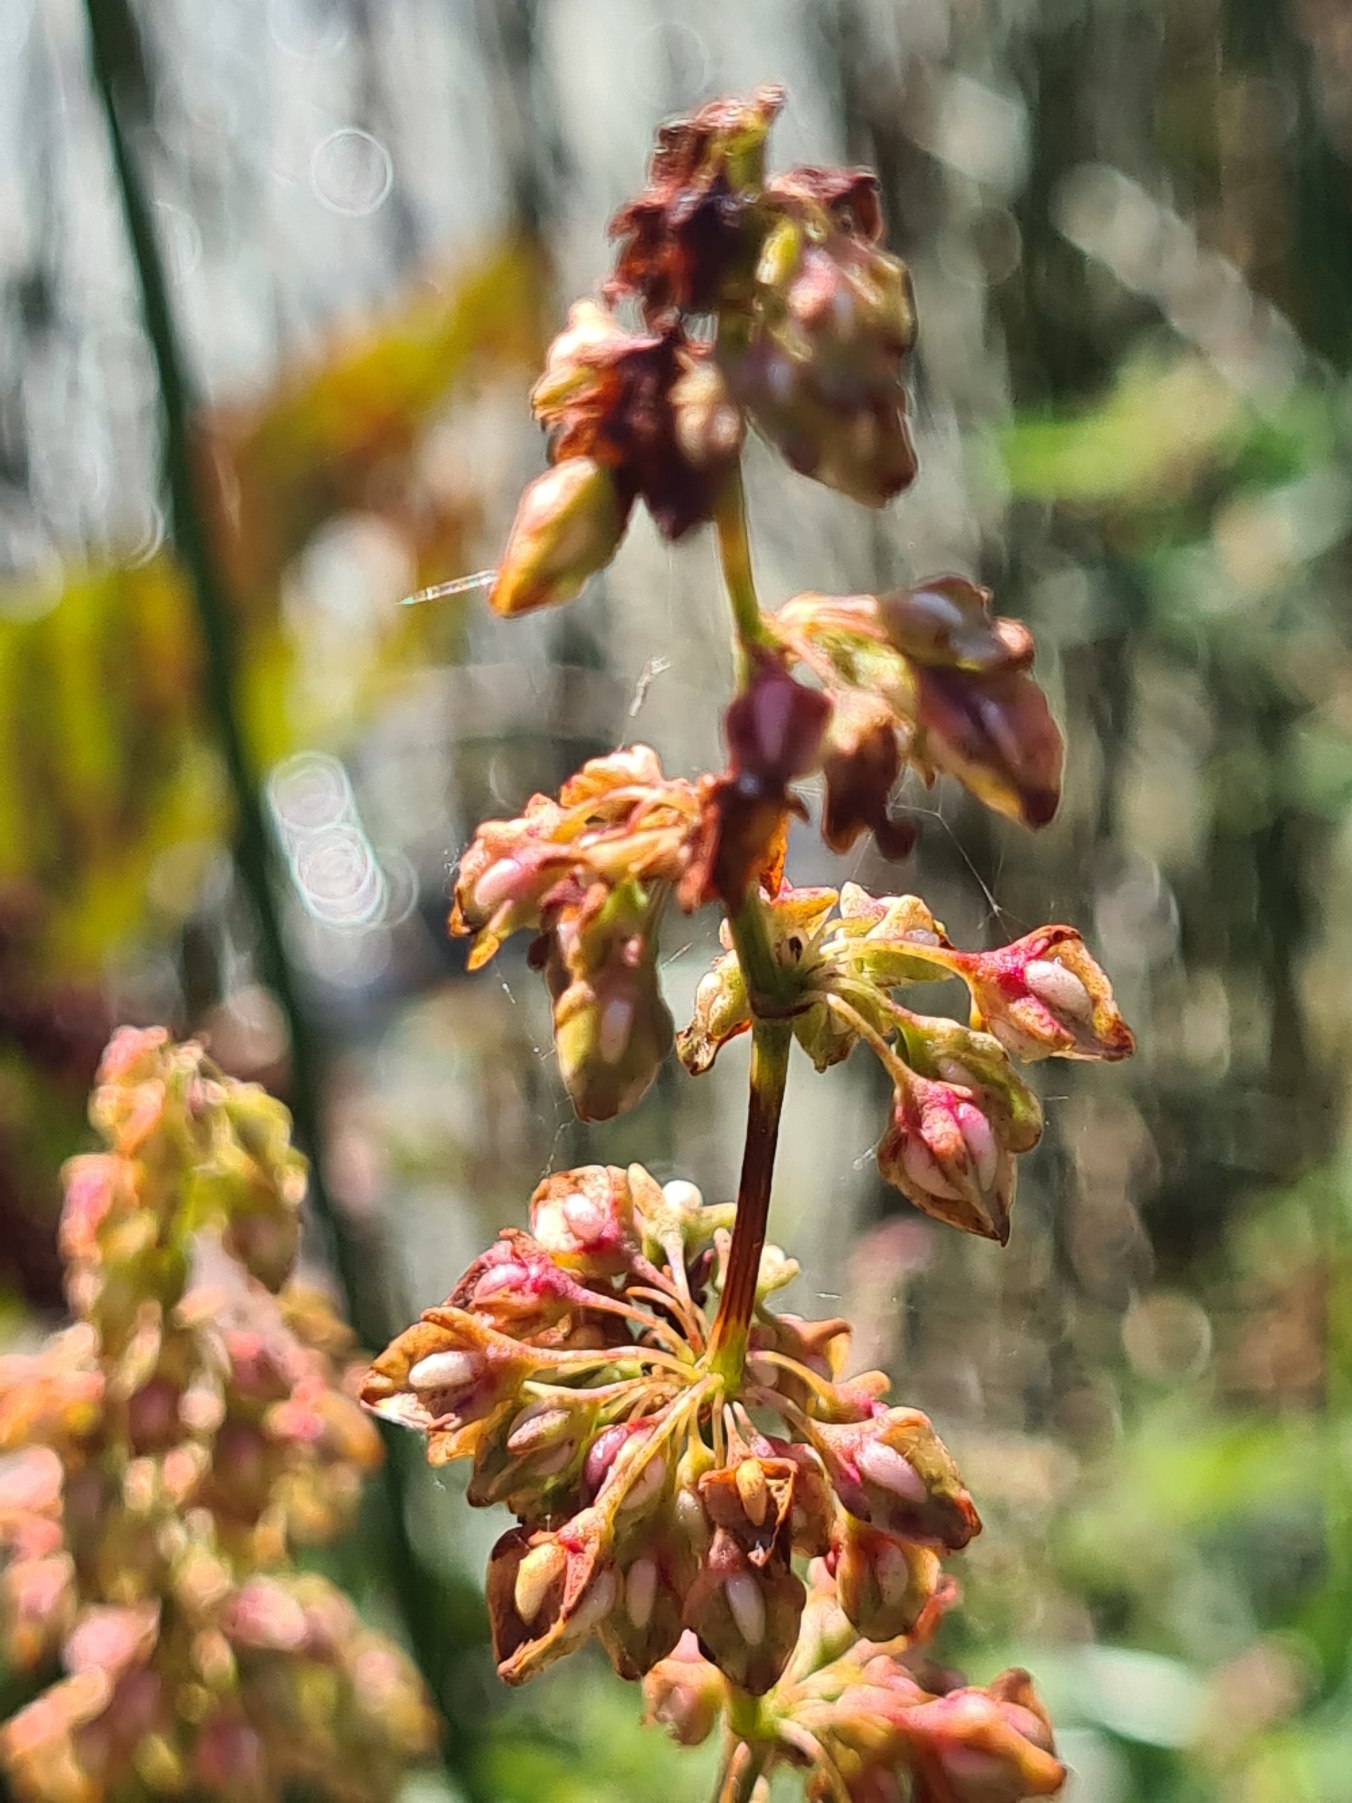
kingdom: Plantae
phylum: Tracheophyta
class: Magnoliopsida
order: Caryophyllales
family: Polygonaceae
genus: Rumex
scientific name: Rumex hydrolapathum
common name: Vand-skræppe
